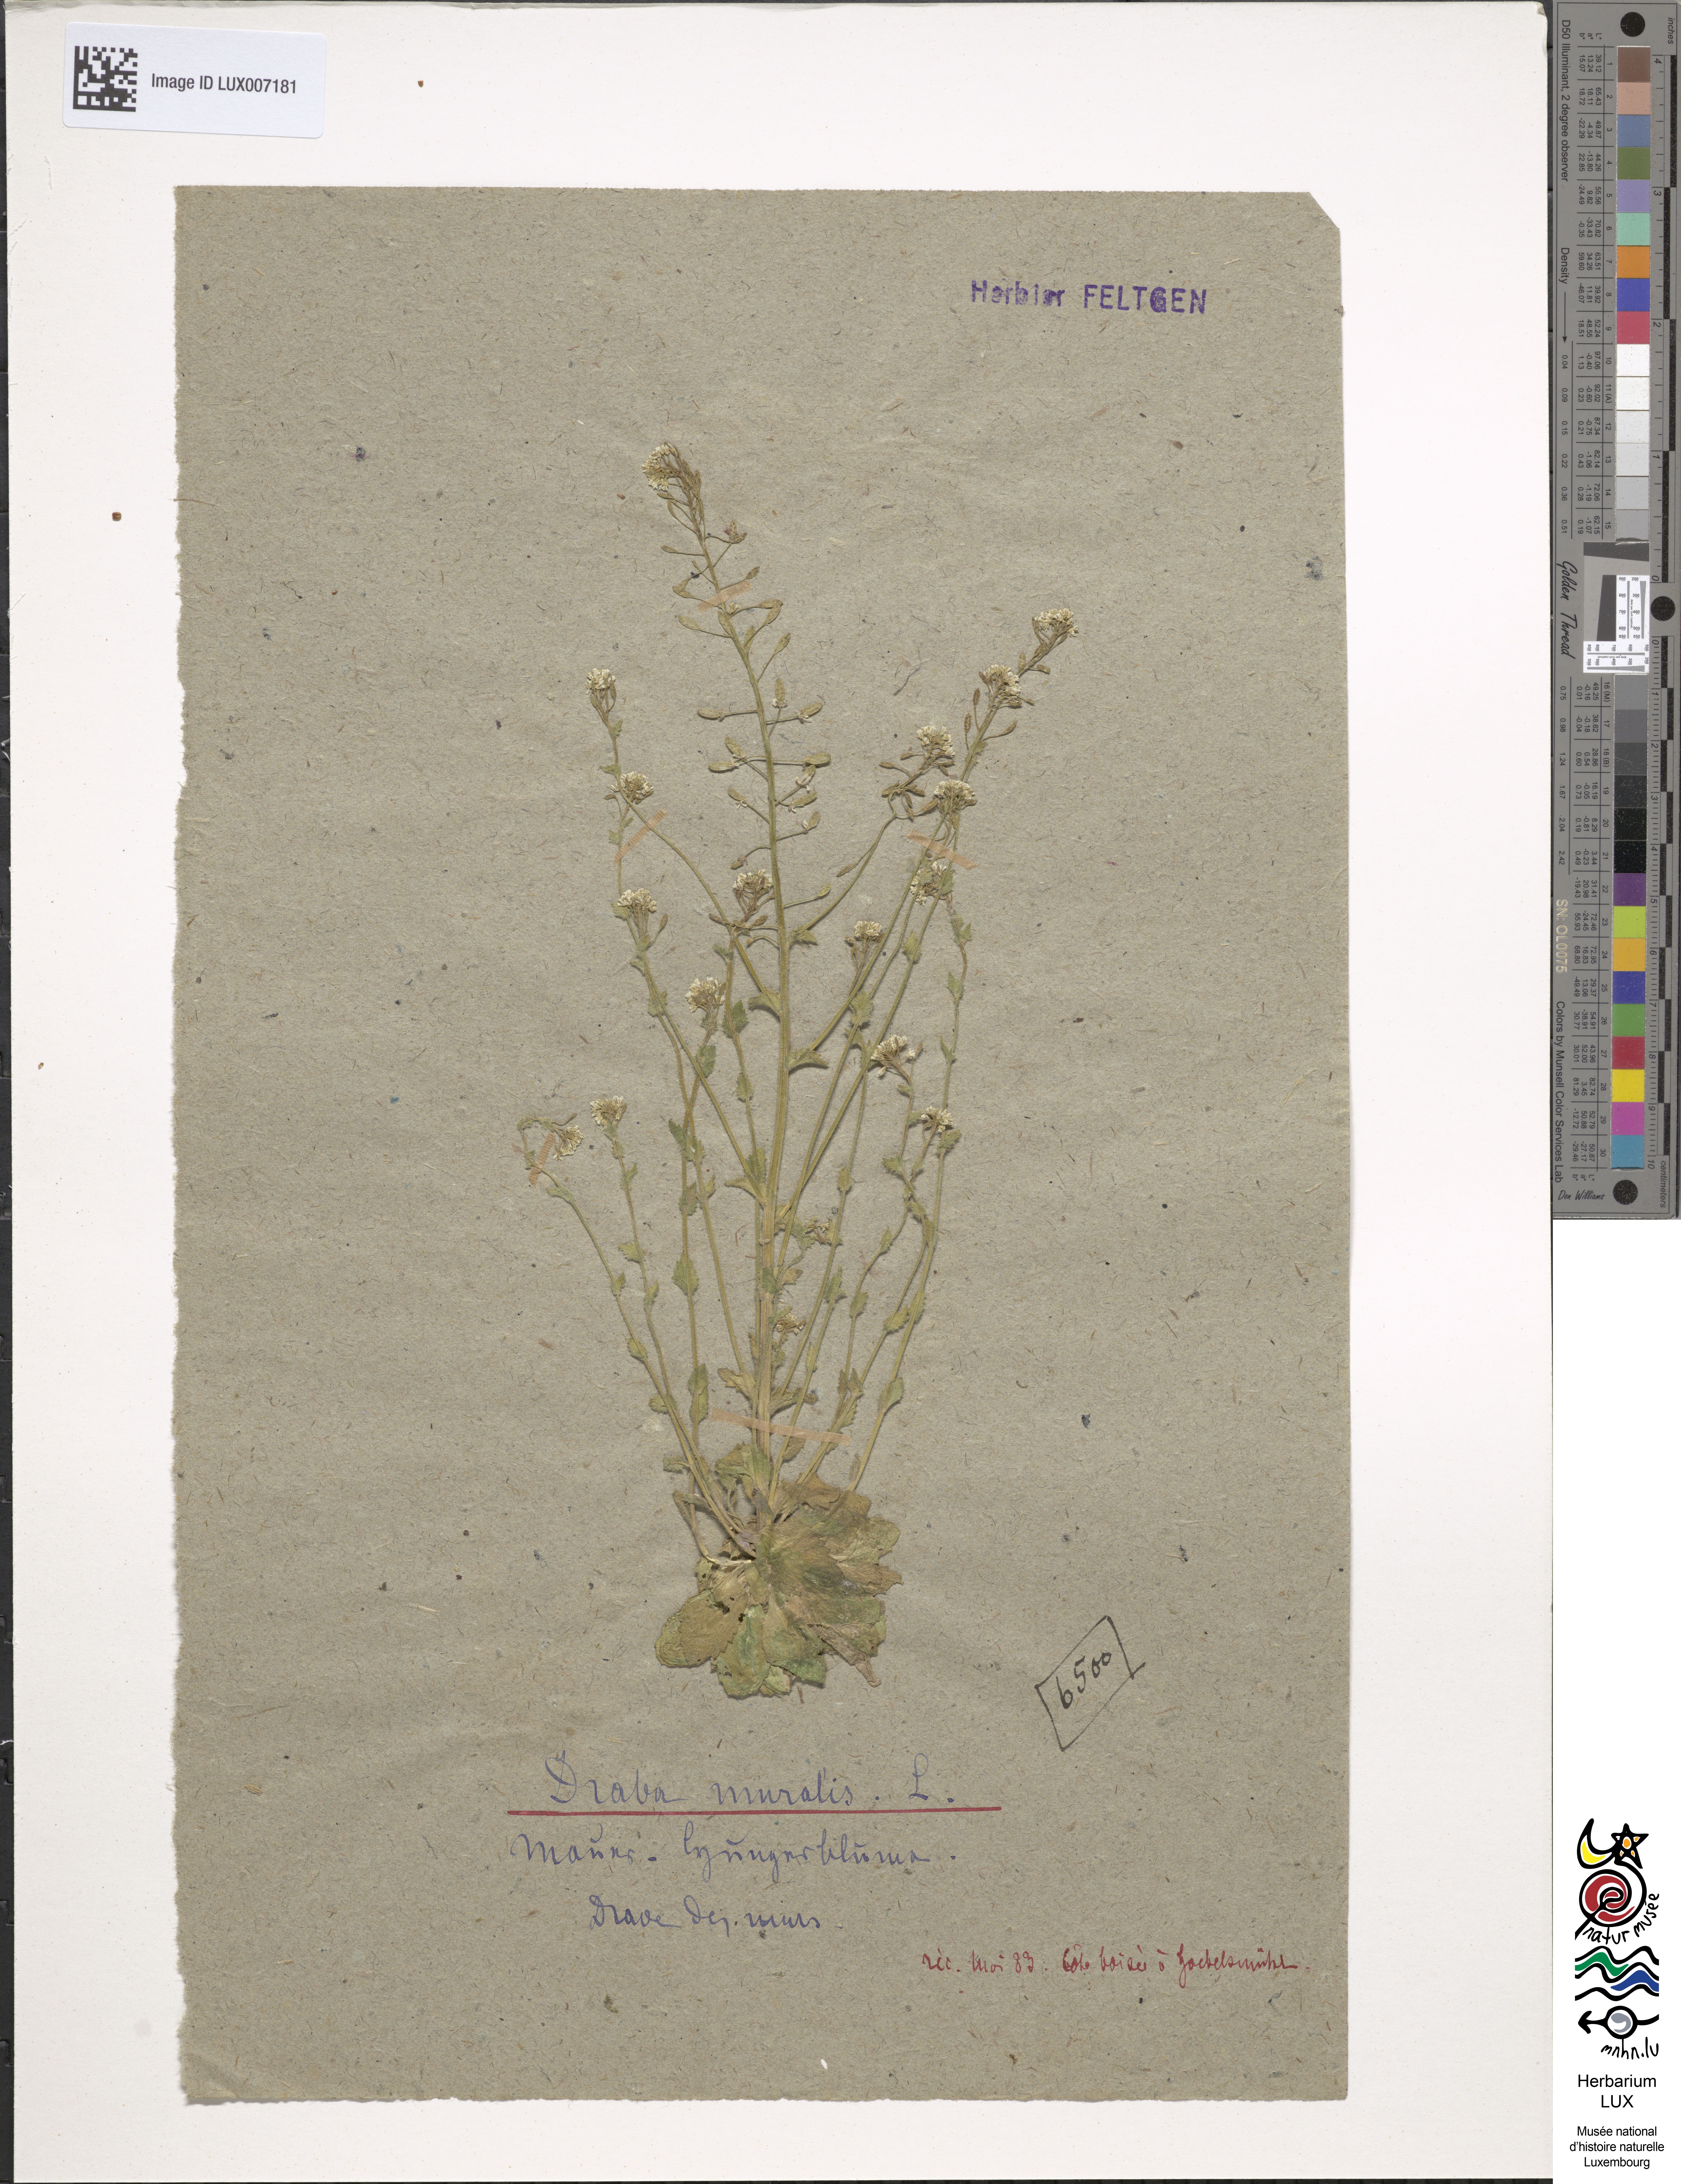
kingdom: Plantae
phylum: Tracheophyta
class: Magnoliopsida
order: Brassicales
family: Brassicaceae
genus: Drabella
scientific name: Drabella muralis
